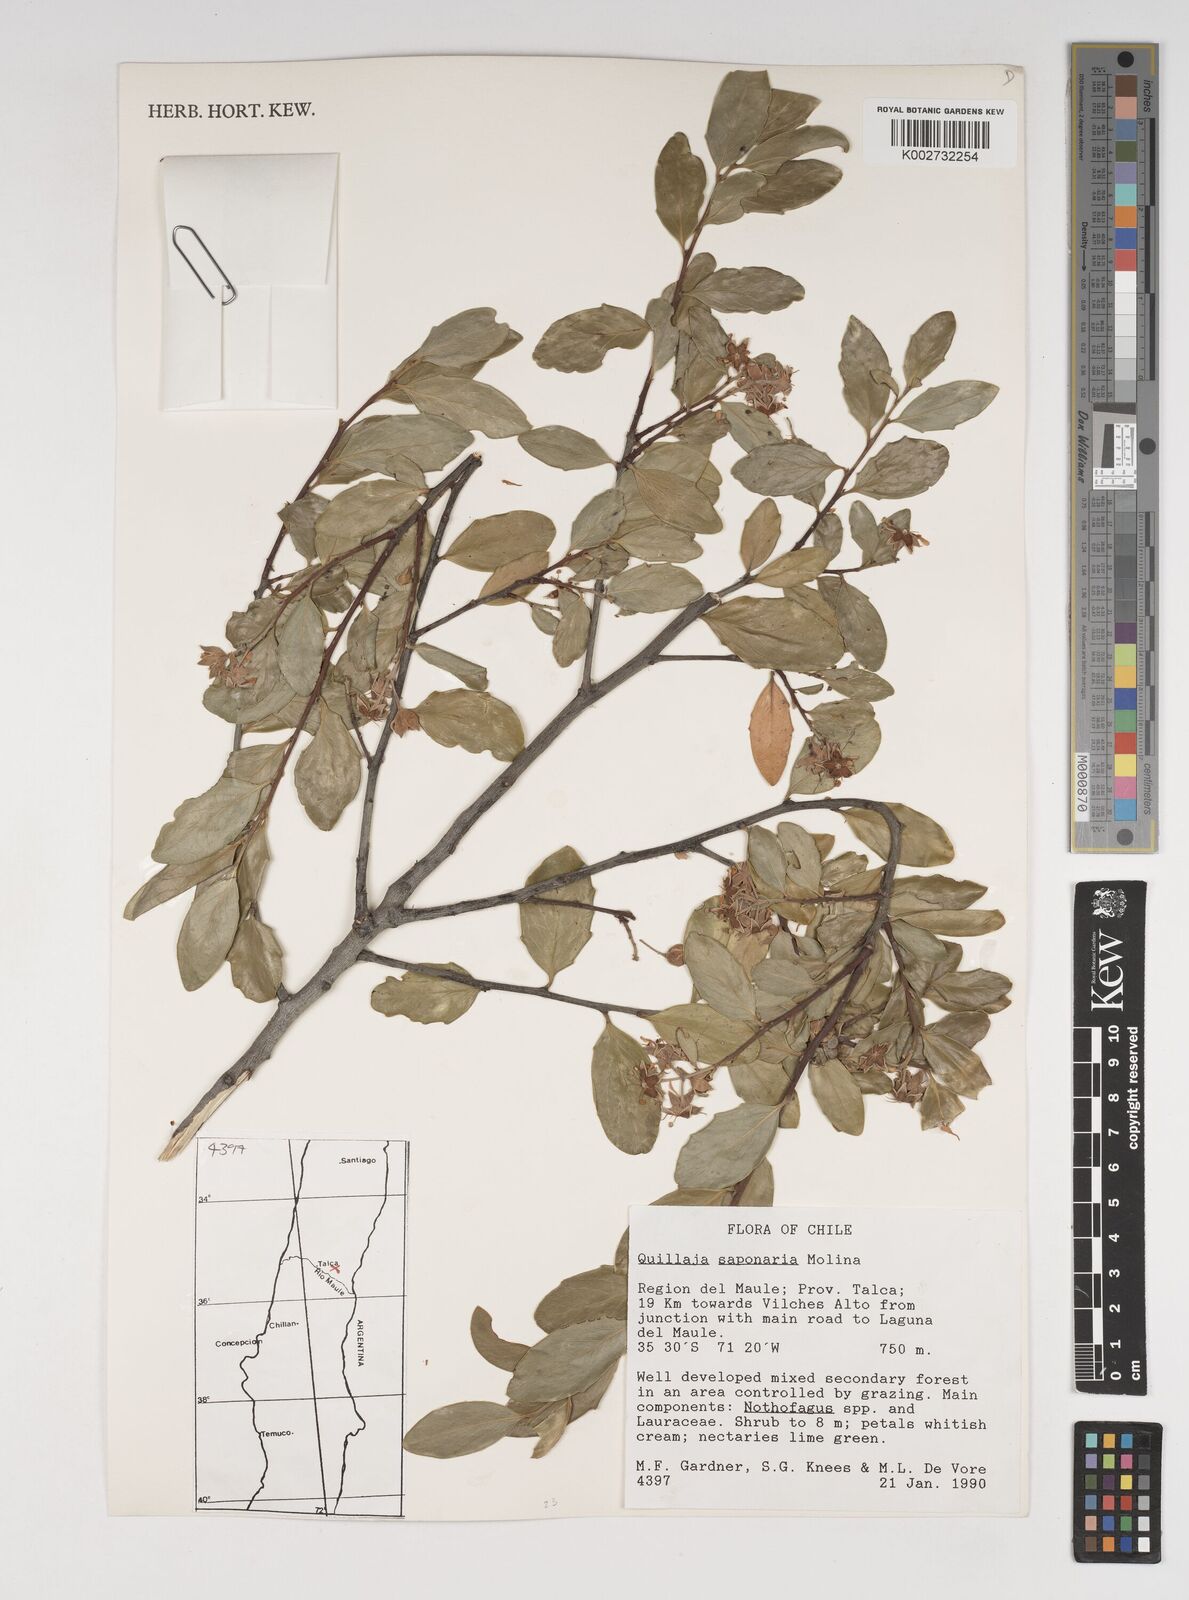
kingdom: Plantae
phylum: Tracheophyta
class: Magnoliopsida
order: Fabales
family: Quillajaceae
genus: Quillaja
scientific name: Quillaja saponaria
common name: Murillo's-bark
